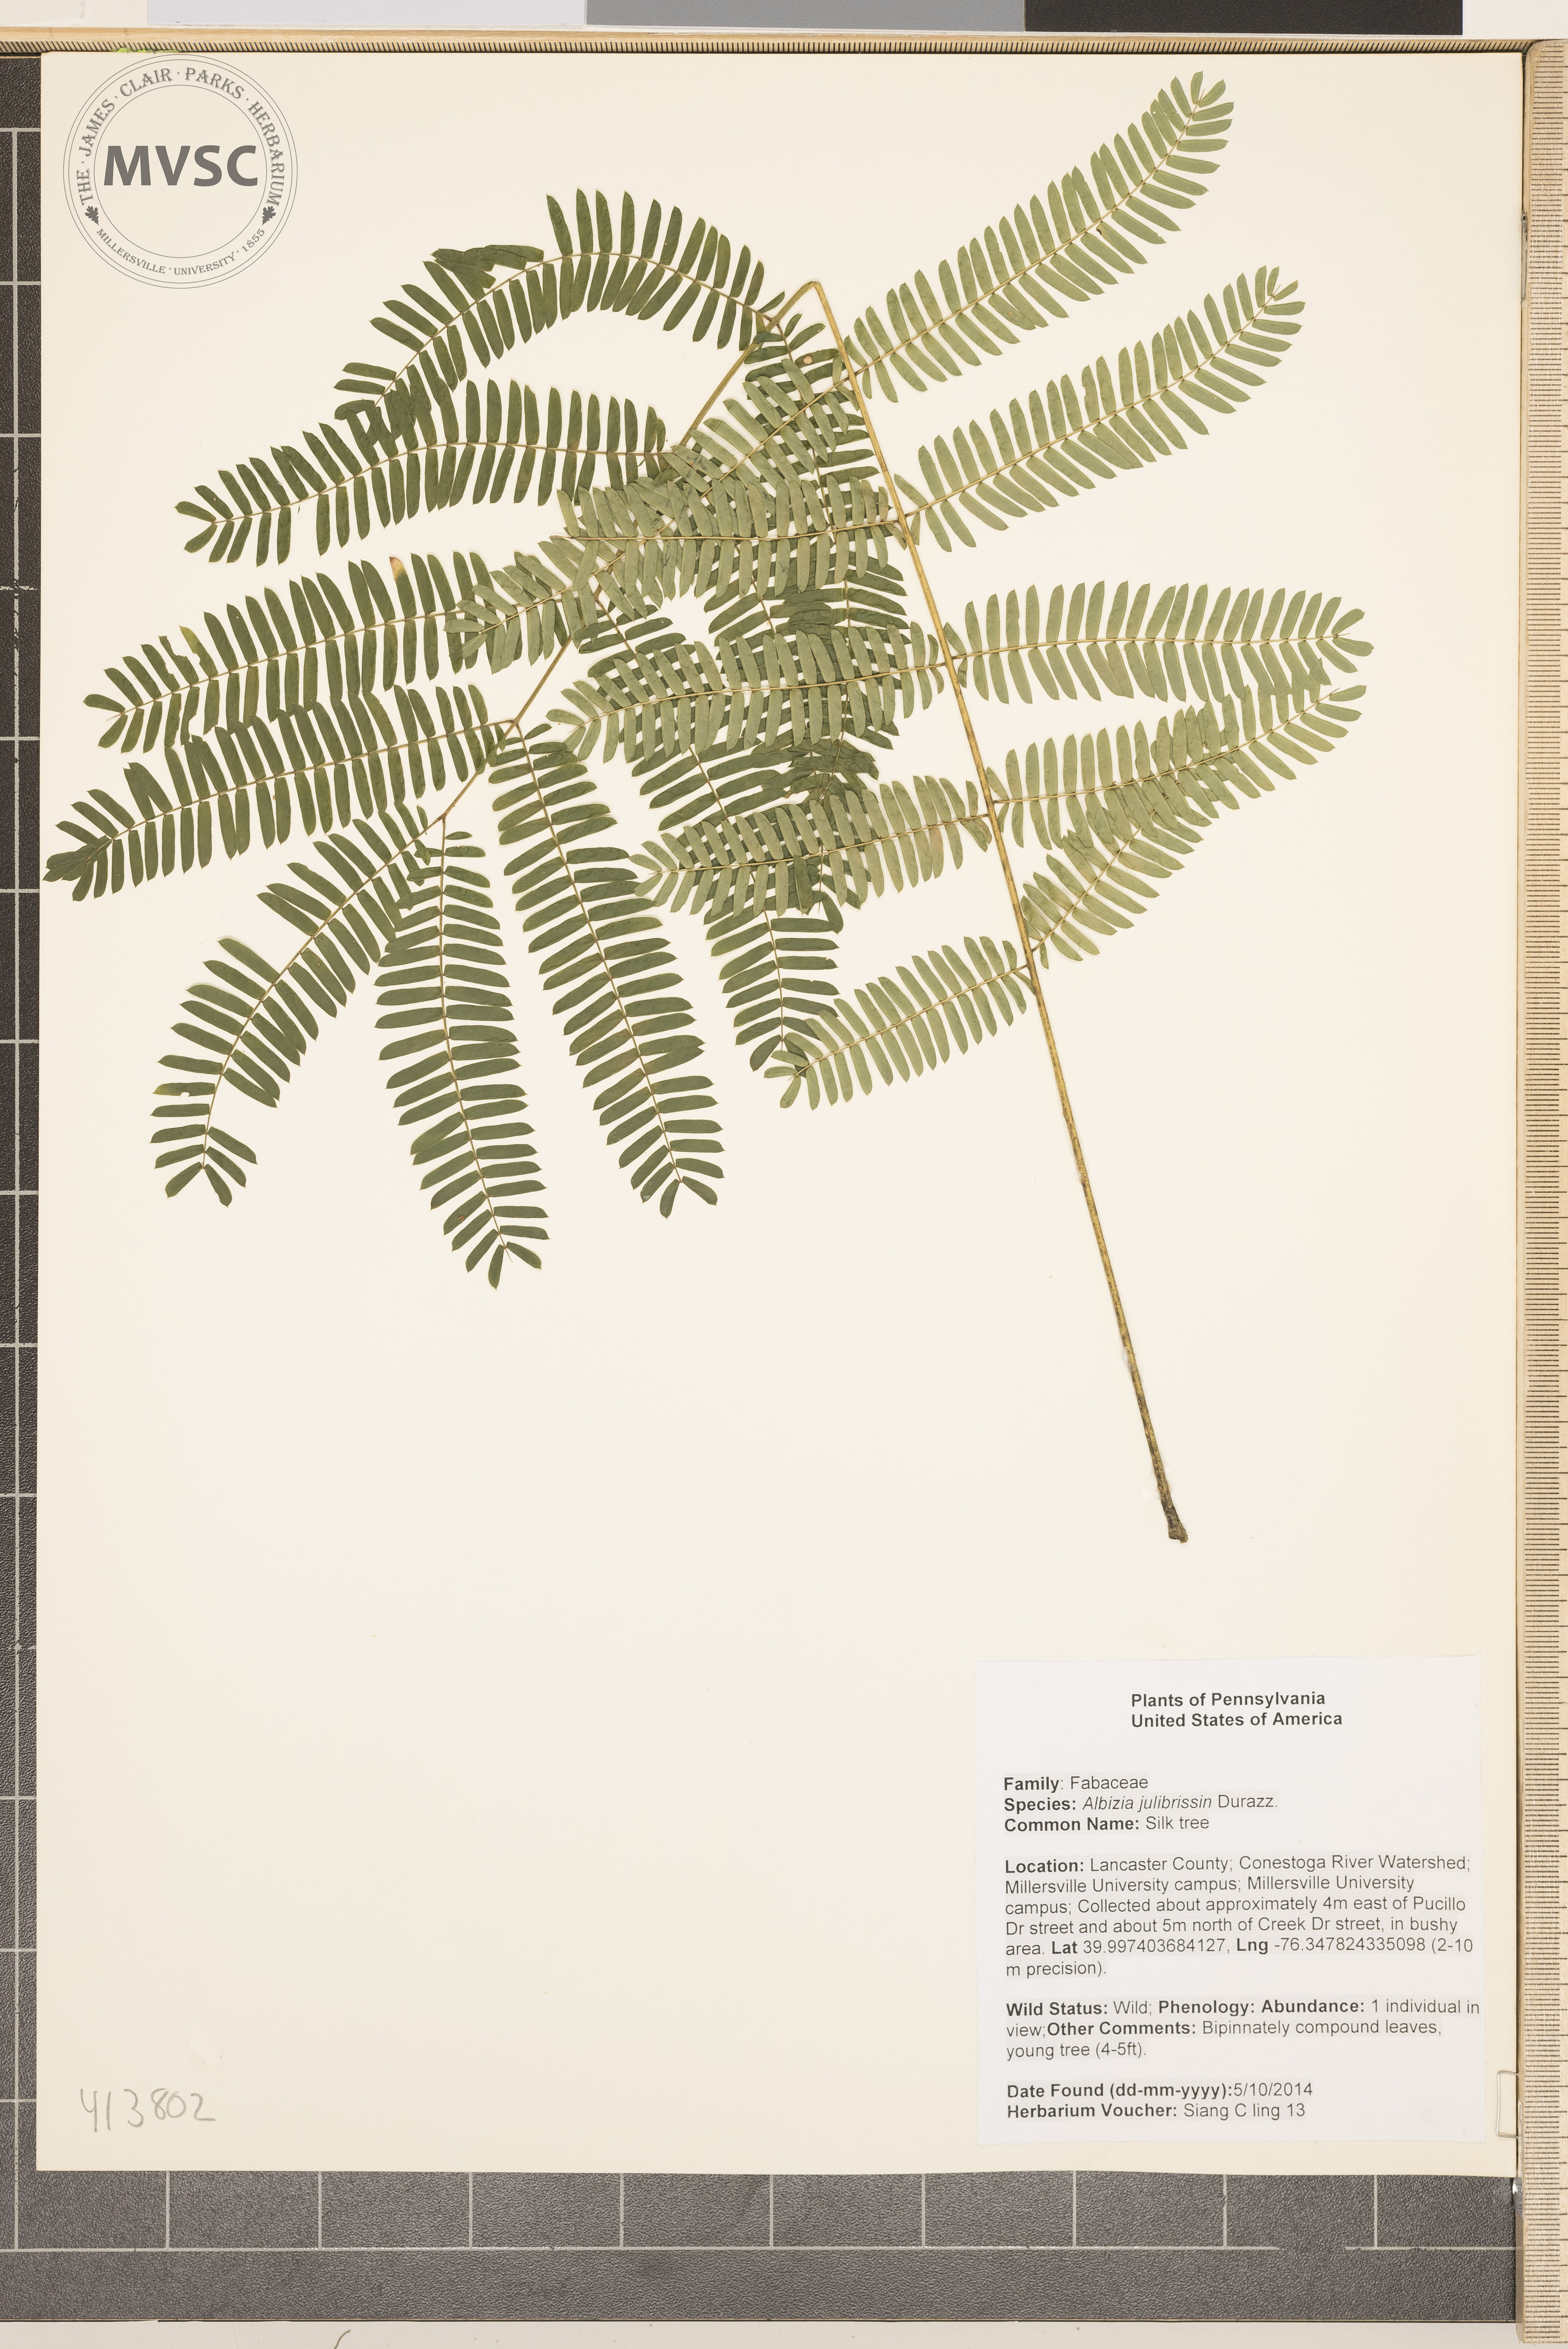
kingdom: Plantae
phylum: Tracheophyta
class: Magnoliopsida
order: Fabales
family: Fabaceae
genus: Albizia
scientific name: Albizia julibrissin
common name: Silk tree
